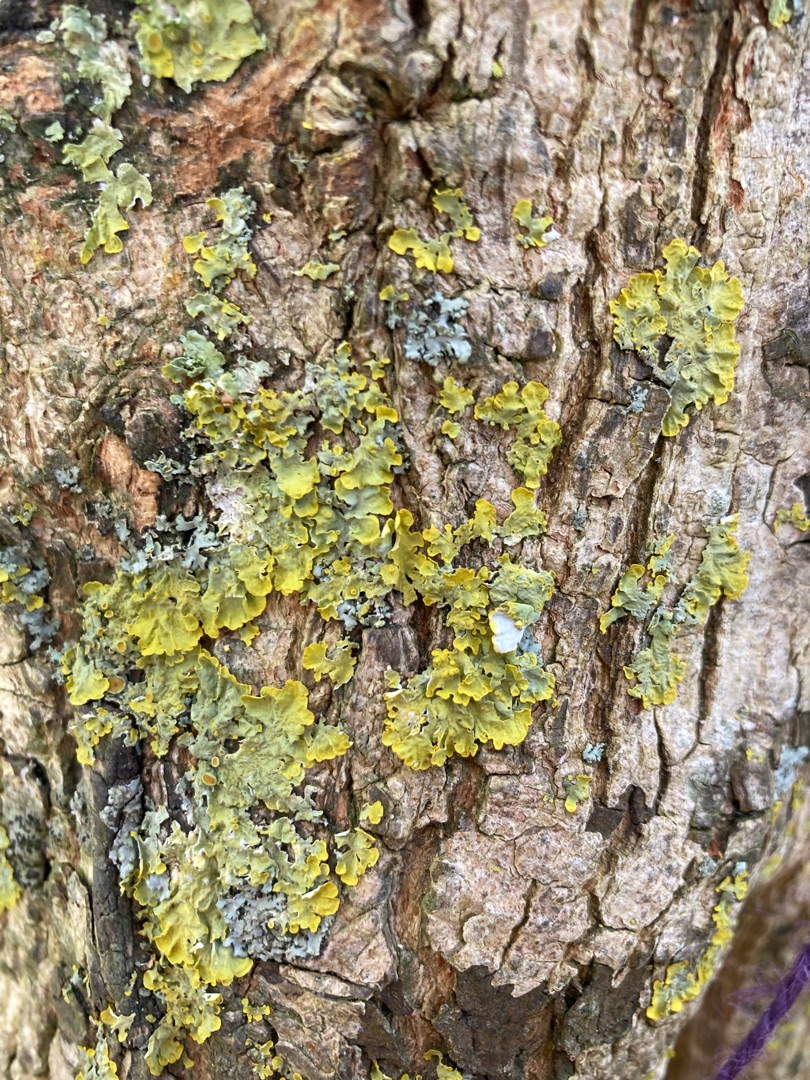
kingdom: Fungi
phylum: Ascomycota
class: Lecanoromycetes
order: Teloschistales
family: Teloschistaceae
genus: Xanthoria
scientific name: Xanthoria parietina
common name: Almindelig væggelav
